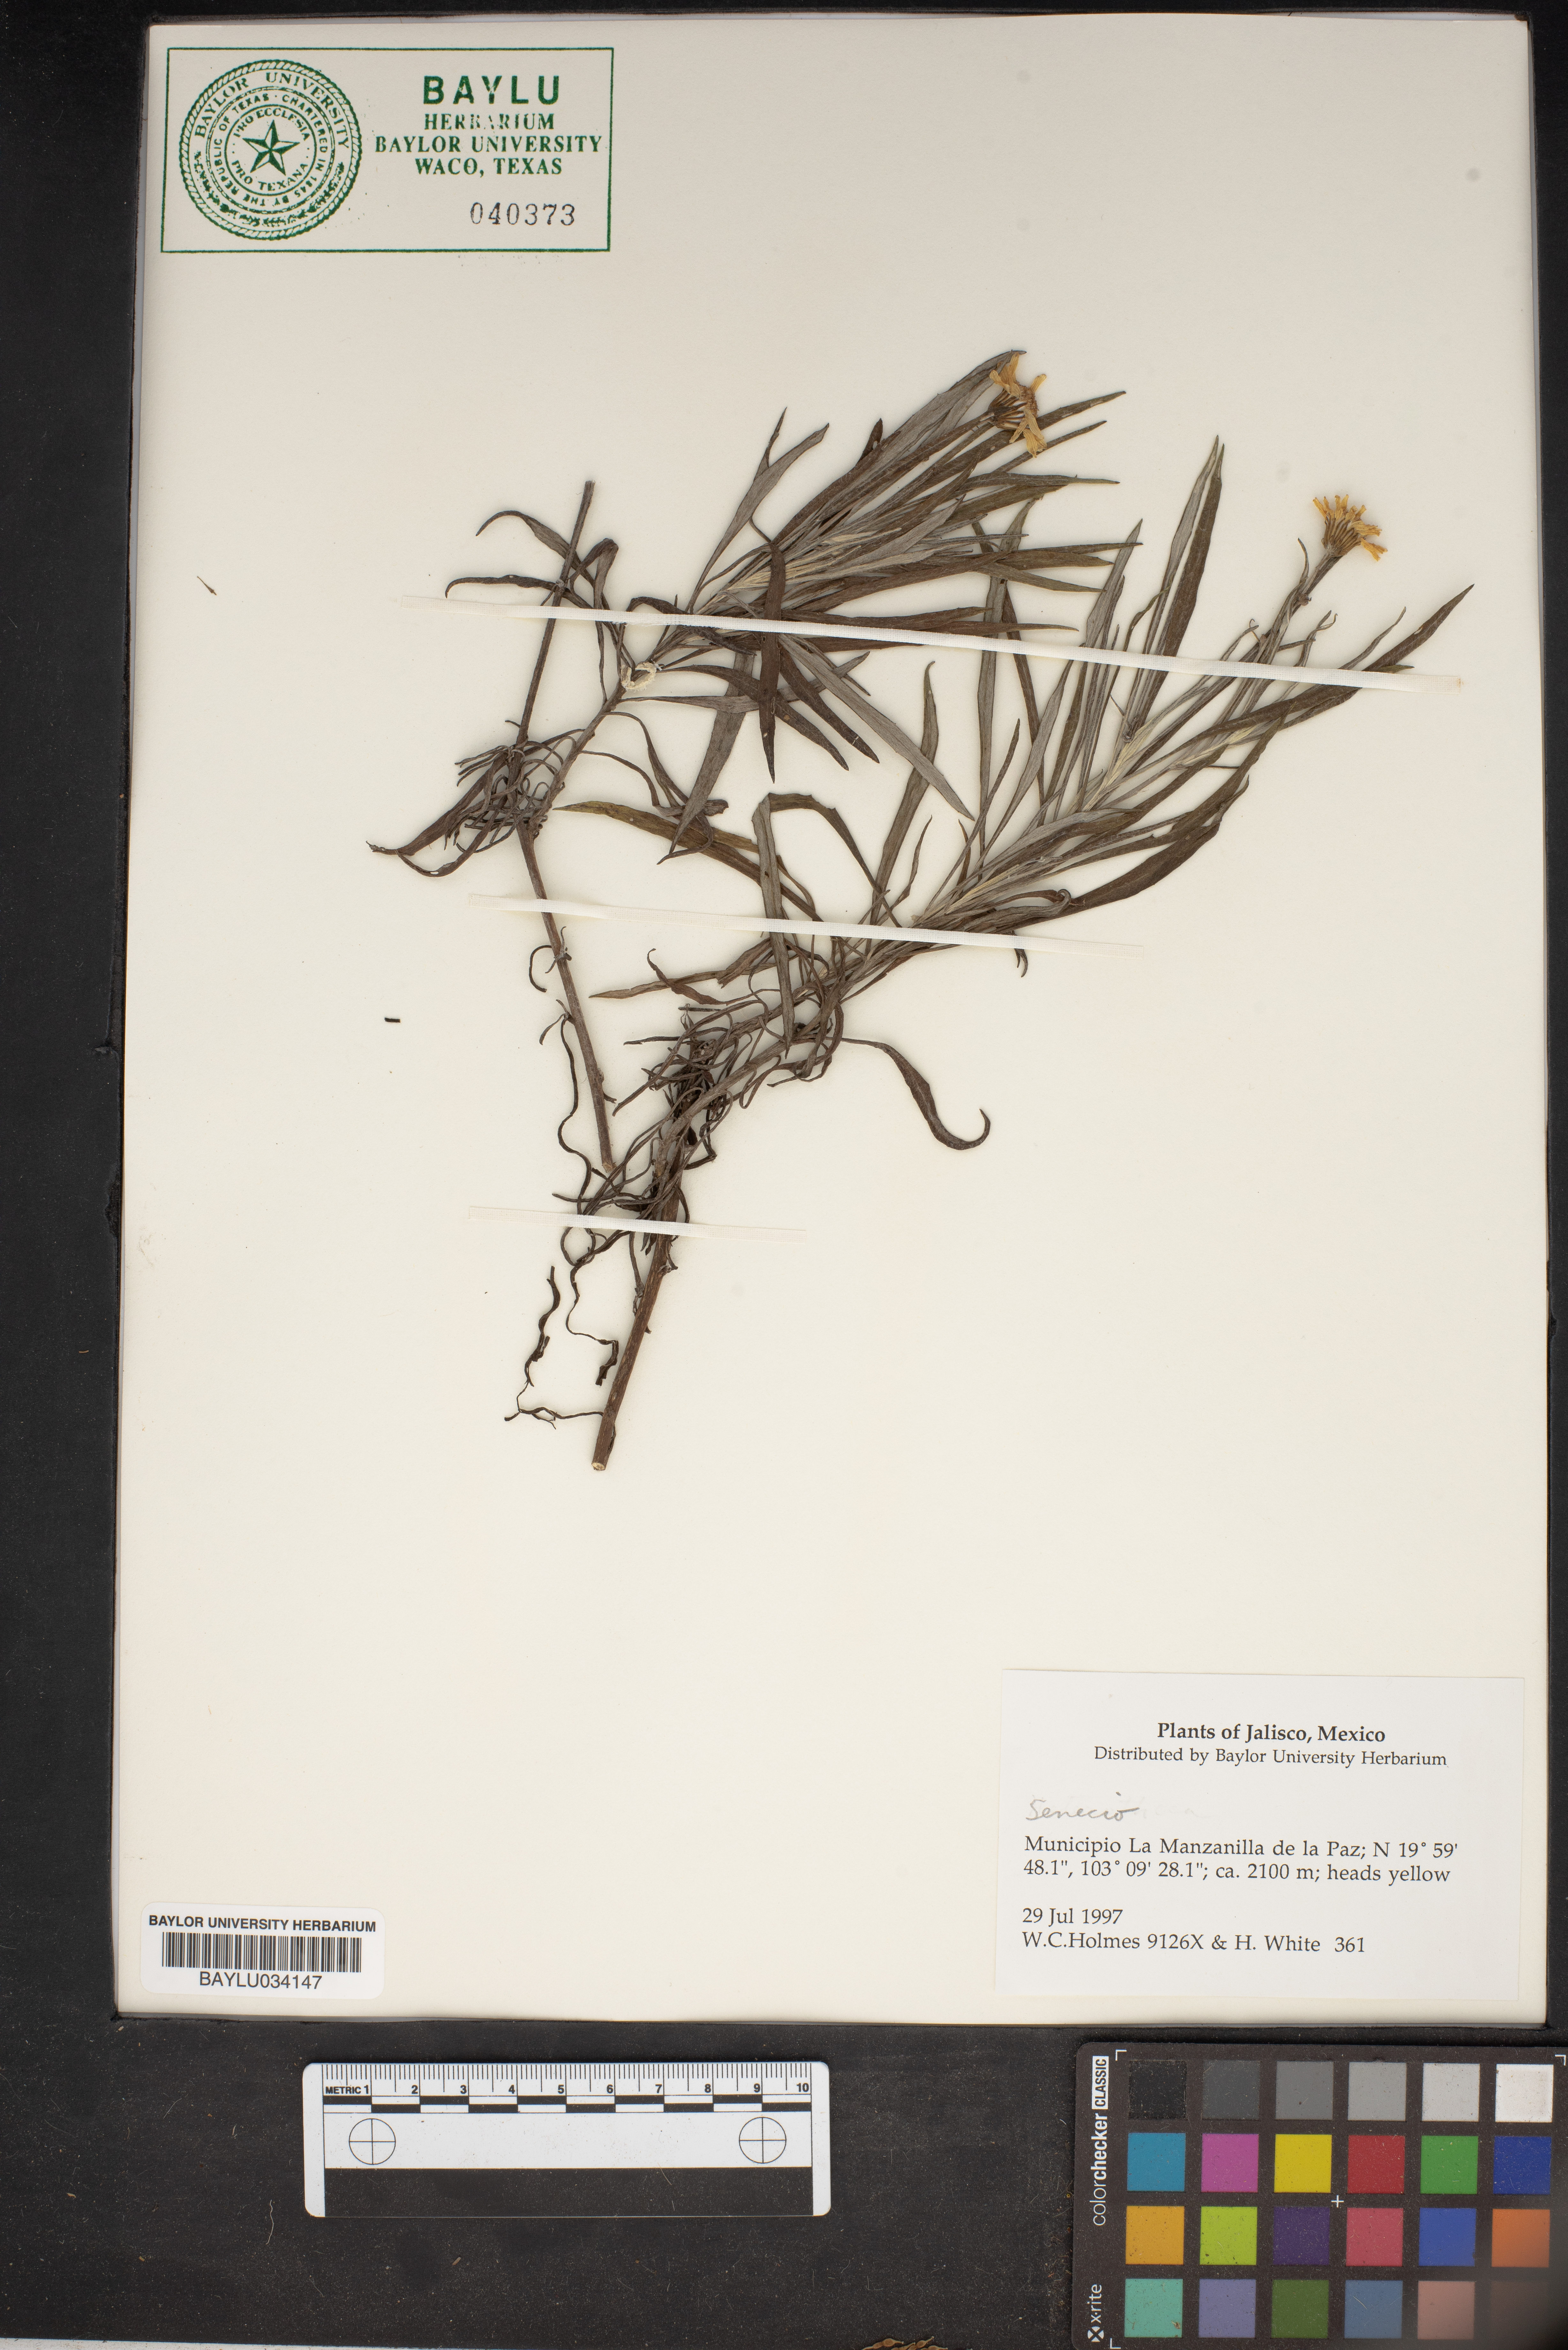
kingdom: Plantae
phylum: Tracheophyta
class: Magnoliopsida
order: Asterales
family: Asteraceae
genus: Senecio
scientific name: Senecio
